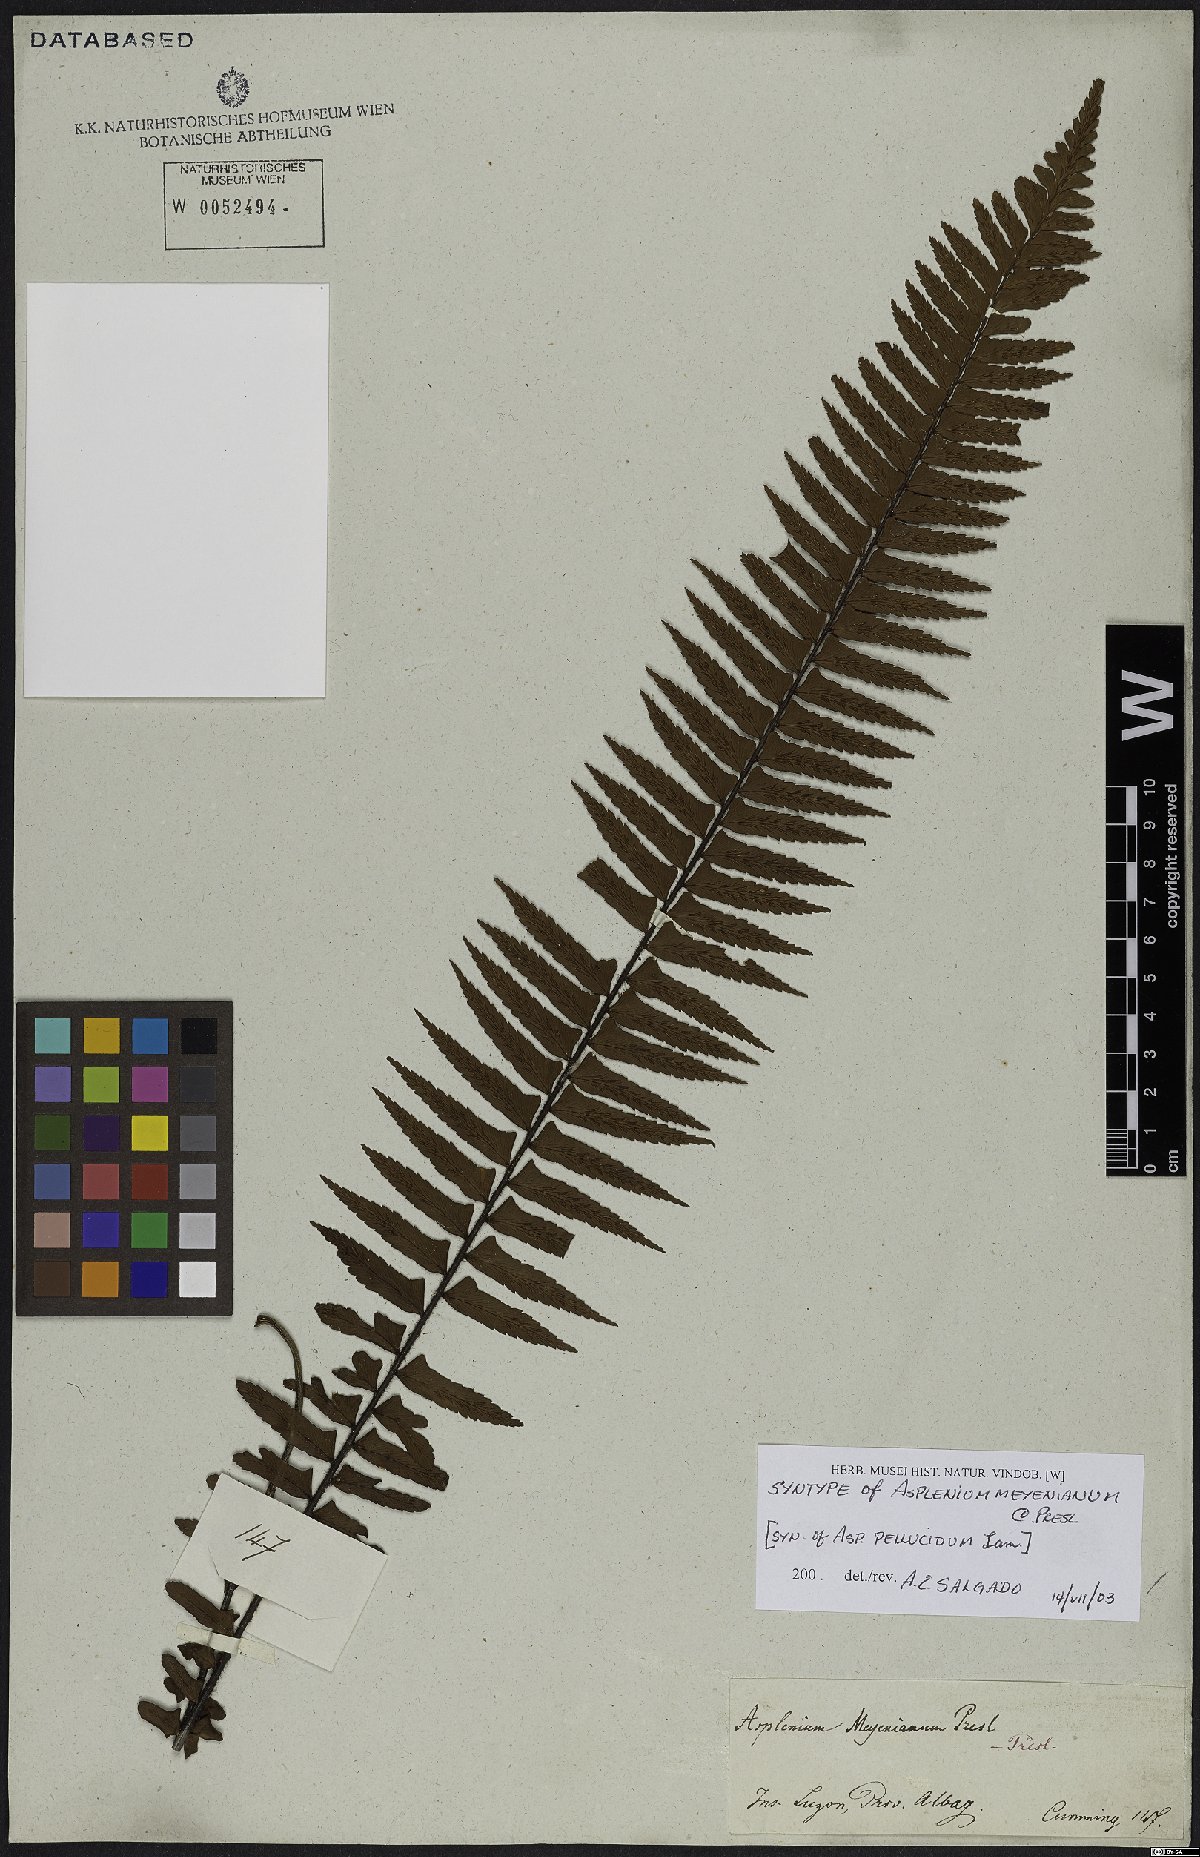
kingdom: Plantae
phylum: Tracheophyta
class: Polypodiopsida
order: Polypodiales
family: Aspleniaceae
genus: Asplenium
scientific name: Asplenium pellucidum
